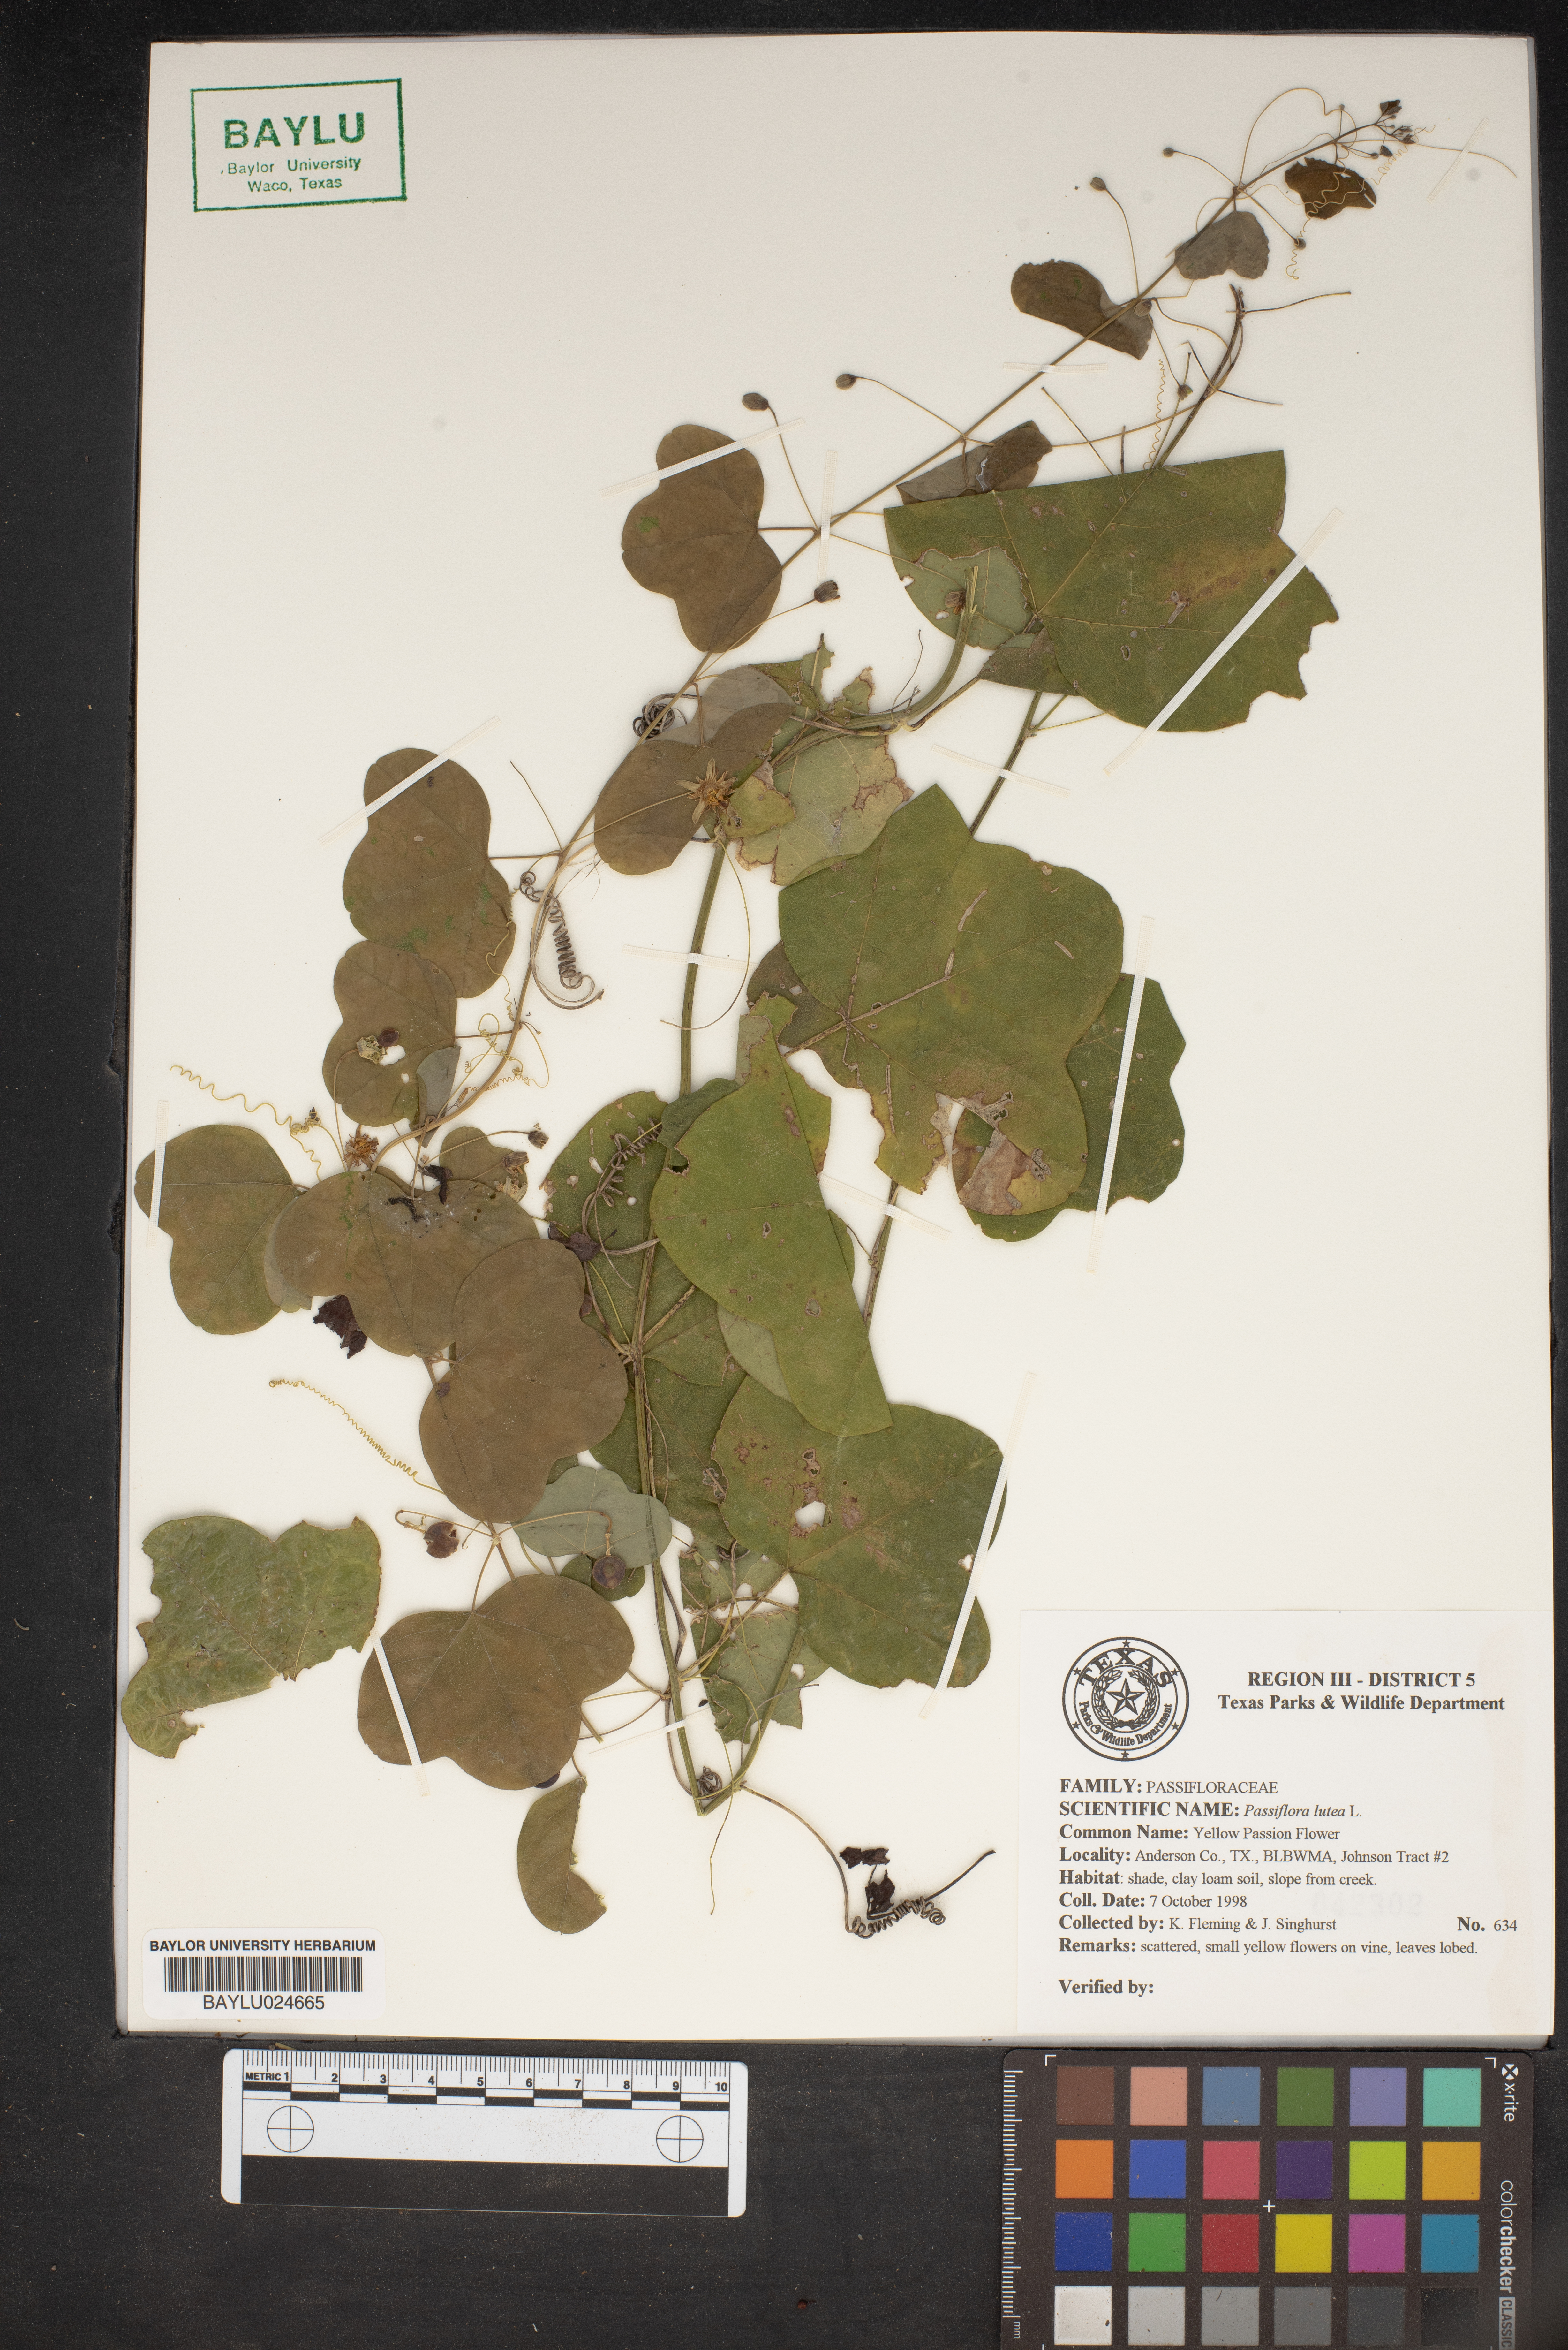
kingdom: Plantae
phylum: Tracheophyta
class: Magnoliopsida
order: Malpighiales
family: Passifloraceae
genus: Passiflora
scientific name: Passiflora lutea
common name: Yellow passionflower
